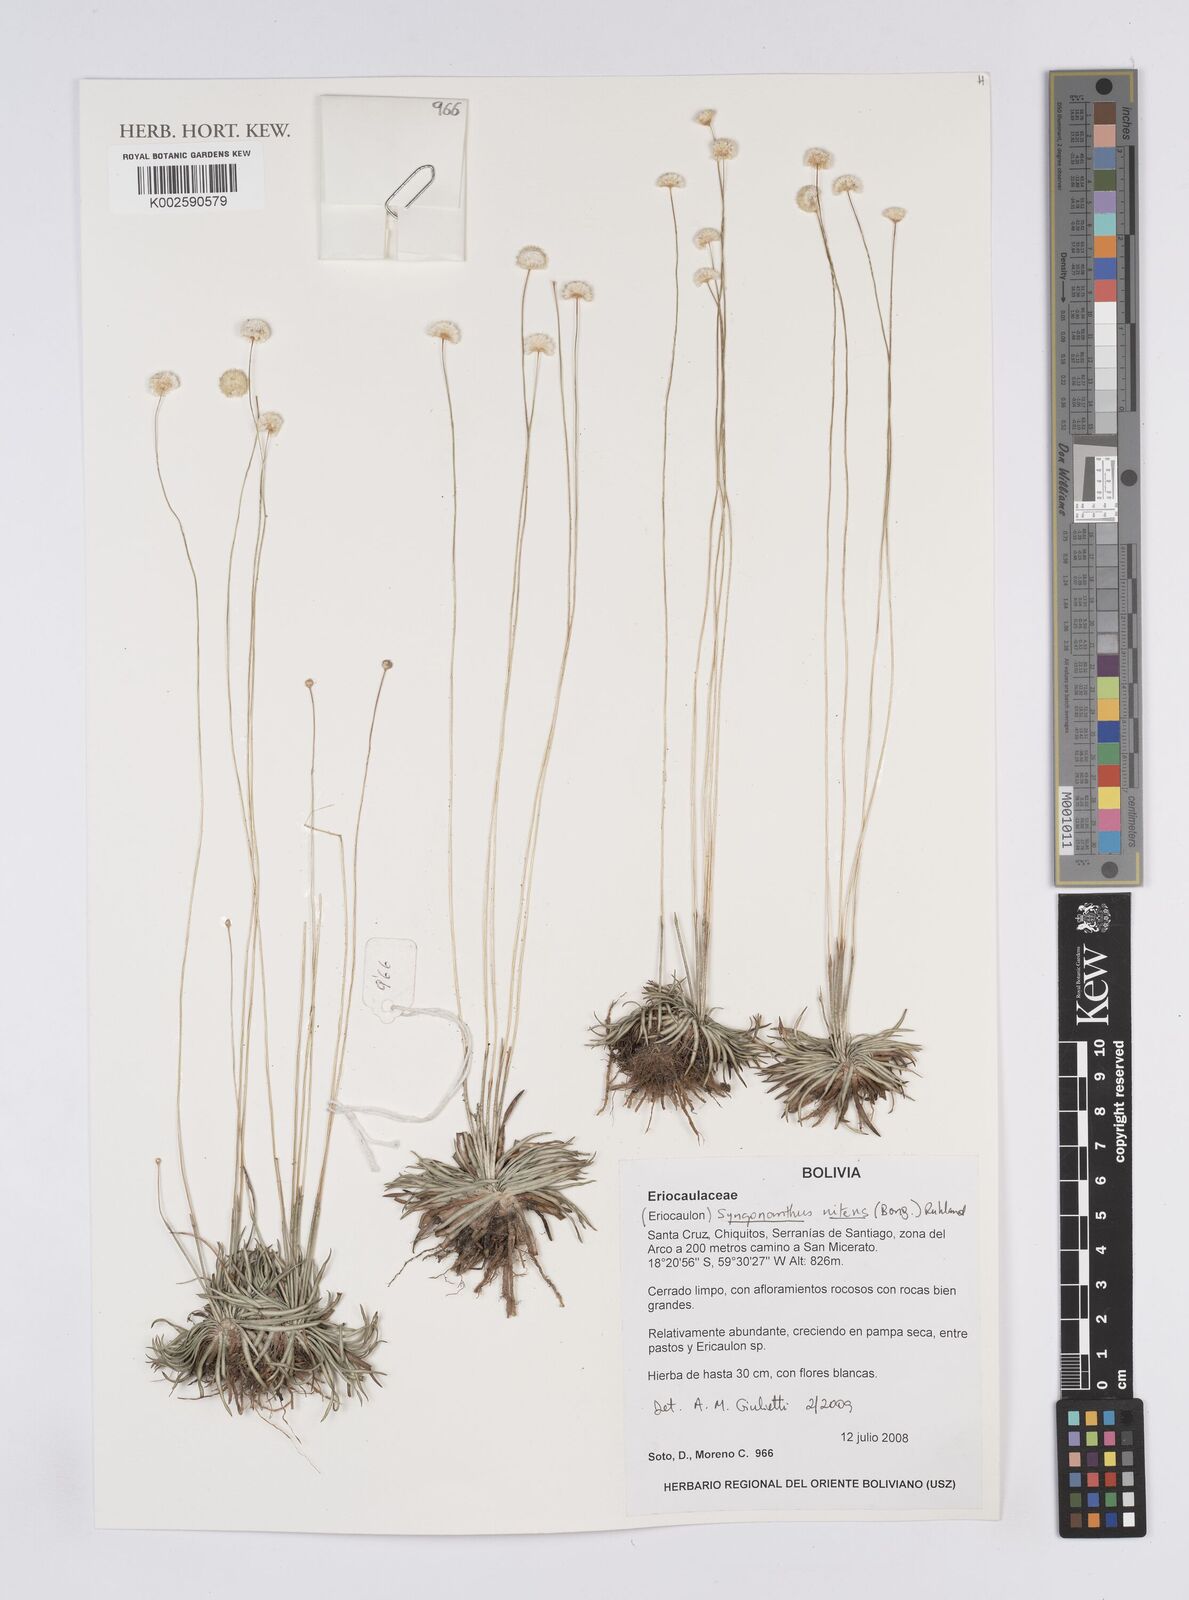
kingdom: Plantae
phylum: Tracheophyta
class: Liliopsida
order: Poales
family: Eriocaulaceae
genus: Syngonanthus
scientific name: Syngonanthus nitens
